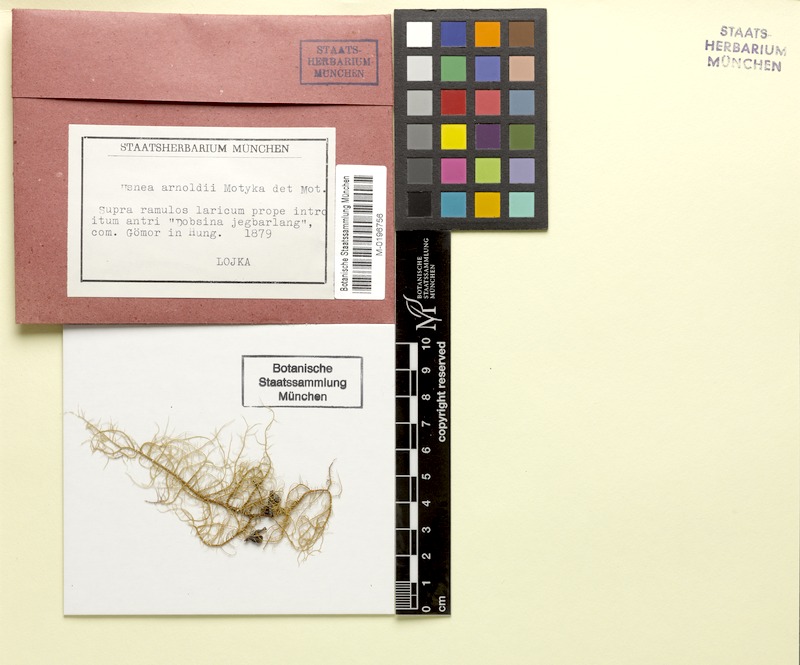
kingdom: Fungi
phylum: Ascomycota
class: Lecanoromycetes
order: Lecanorales
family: Parmeliaceae
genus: Usnea
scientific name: Usnea lapponica
